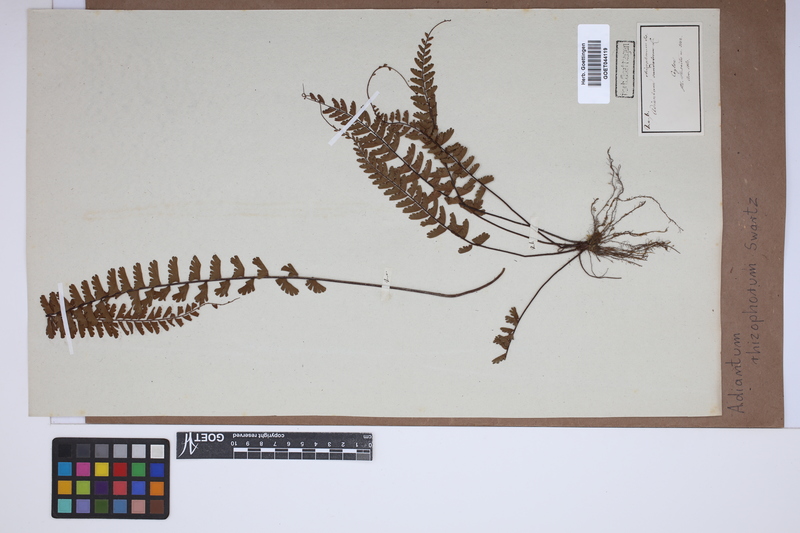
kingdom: Plantae
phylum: Tracheophyta
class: Polypodiopsida
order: Polypodiales
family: Pteridaceae
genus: Adiantum
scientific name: Adiantum rhizophorum
